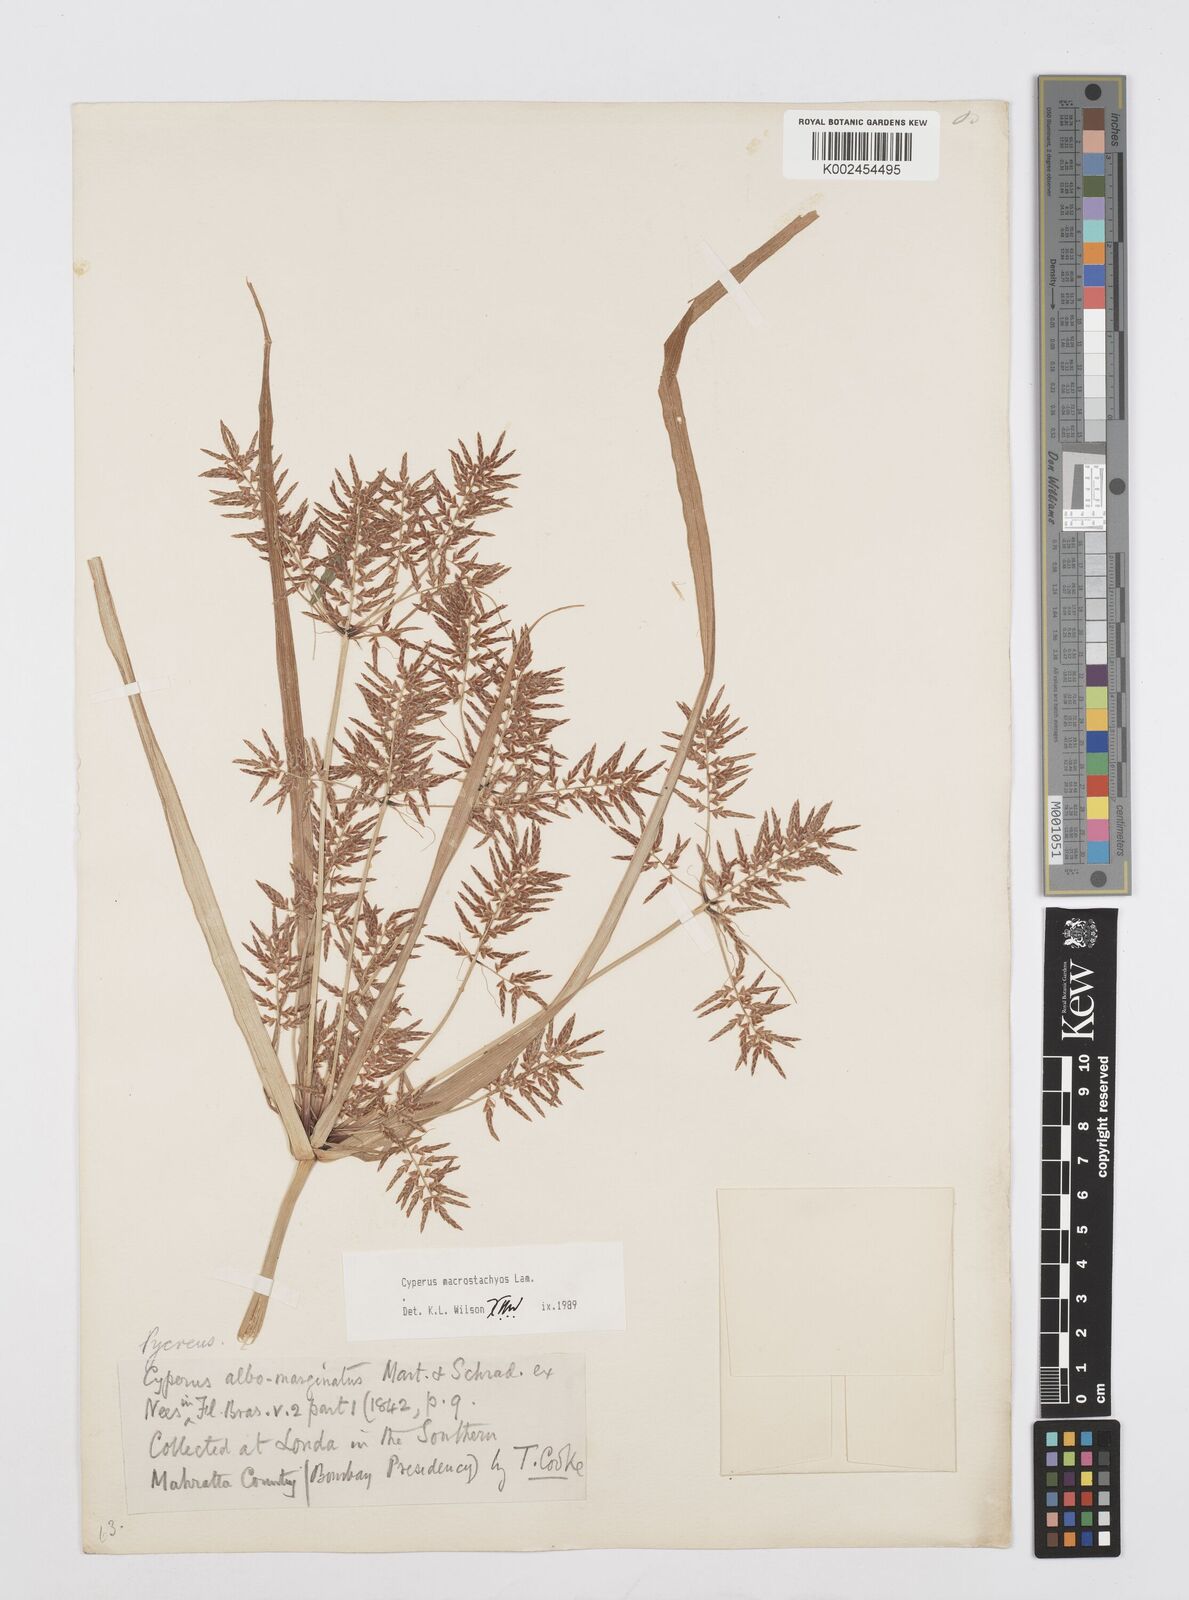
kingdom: Plantae
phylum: Tracheophyta
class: Liliopsida
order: Poales
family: Cyperaceae
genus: Cyperus
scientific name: Cyperus macrostachyos
